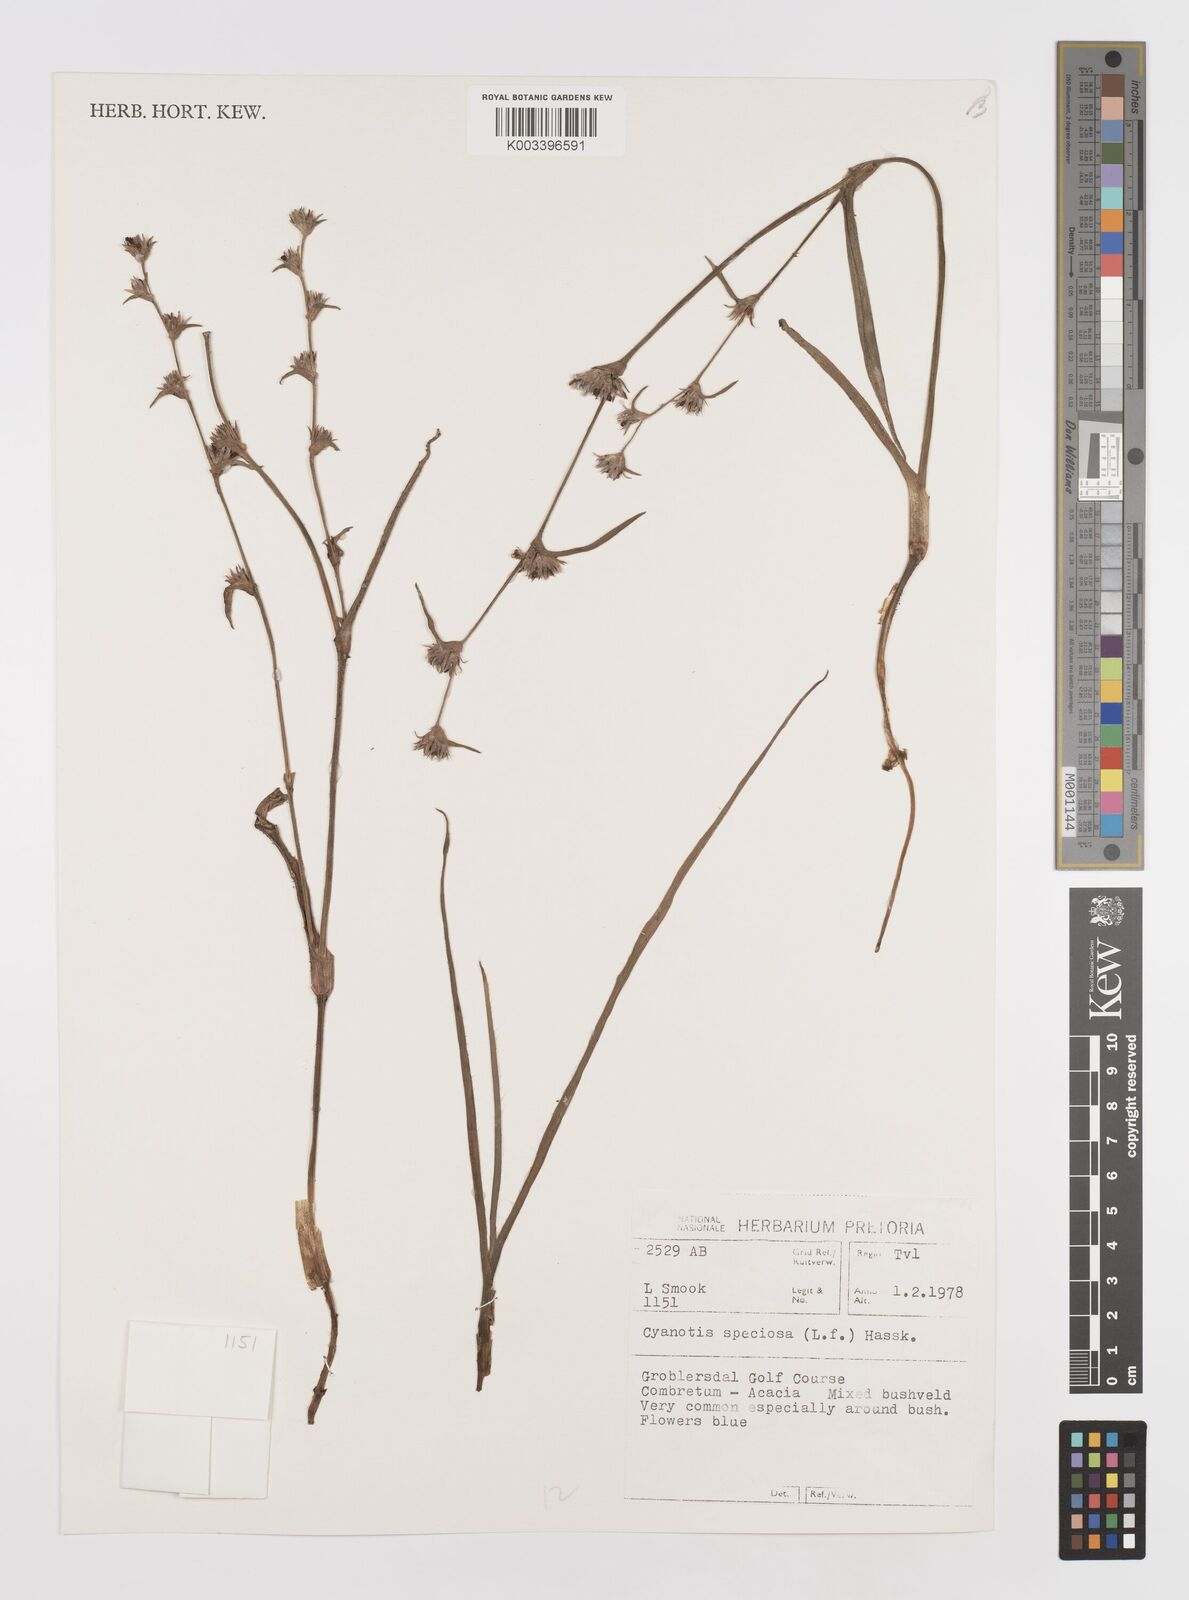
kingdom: Plantae
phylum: Tracheophyta
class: Liliopsida
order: Commelinales
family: Commelinaceae
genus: Cyanotis
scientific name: Cyanotis speciosa
